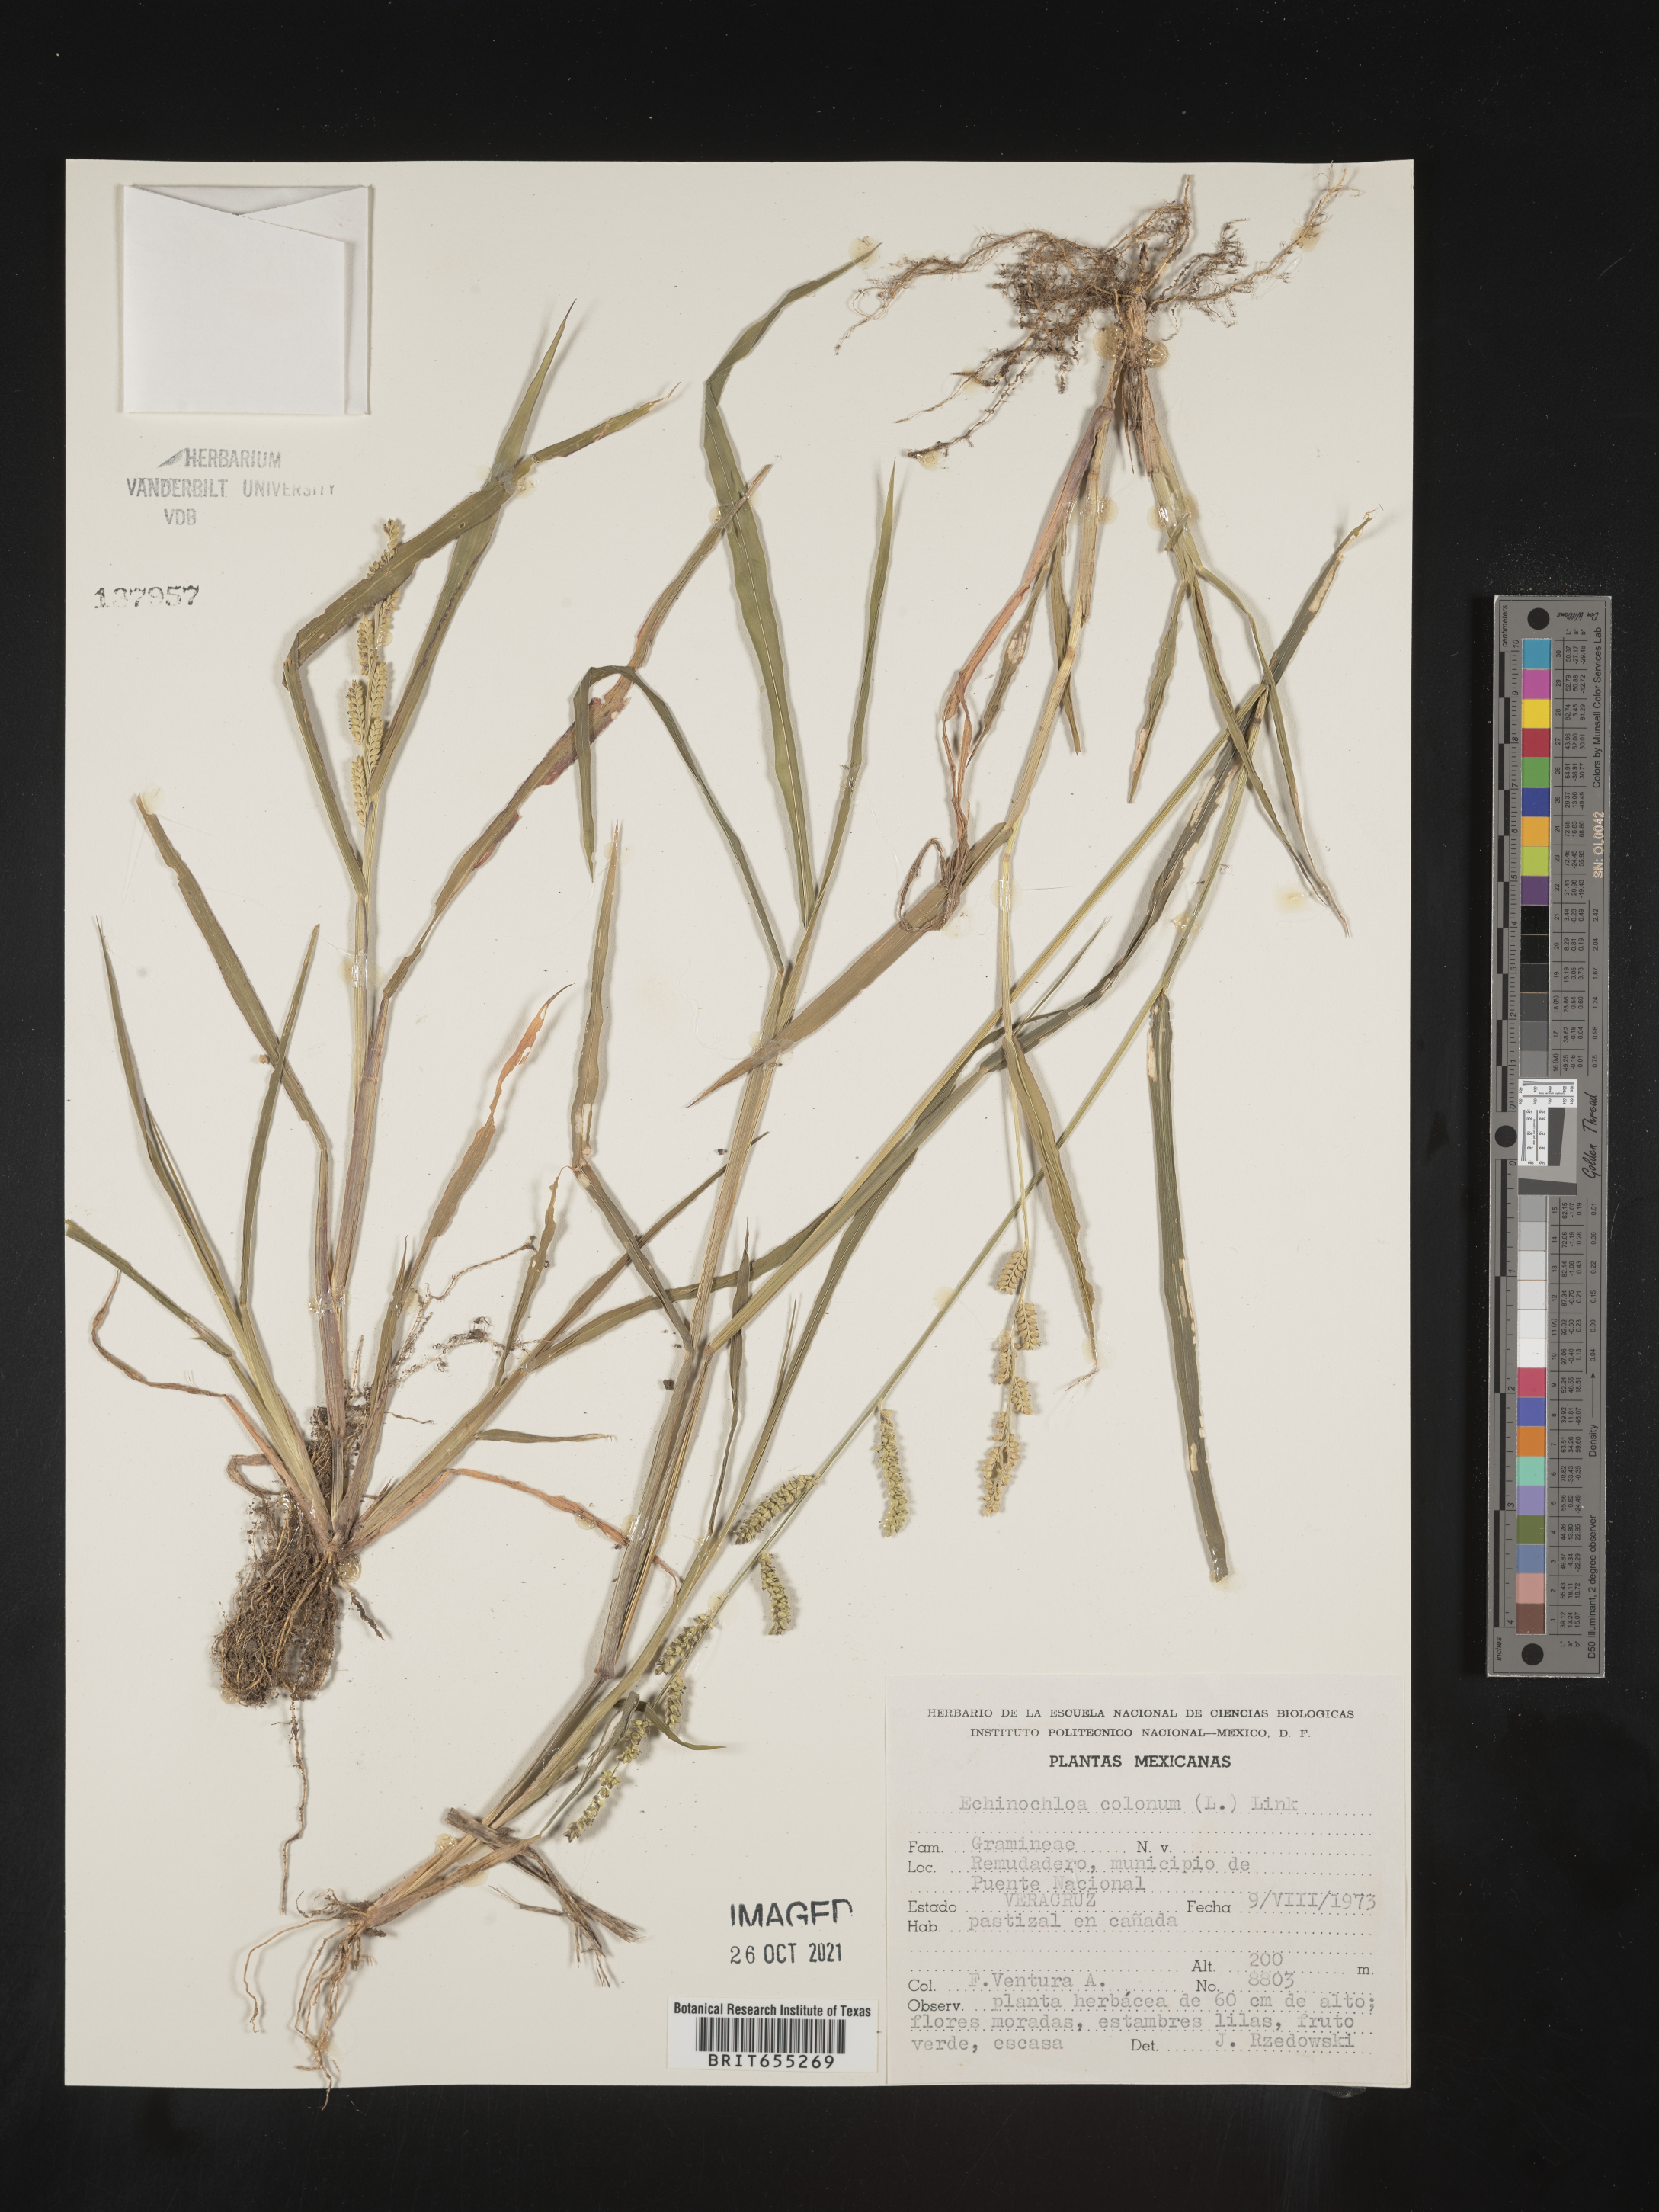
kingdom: Plantae
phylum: Tracheophyta
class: Liliopsida
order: Poales
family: Poaceae
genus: Echinochloa
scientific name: Echinochloa
